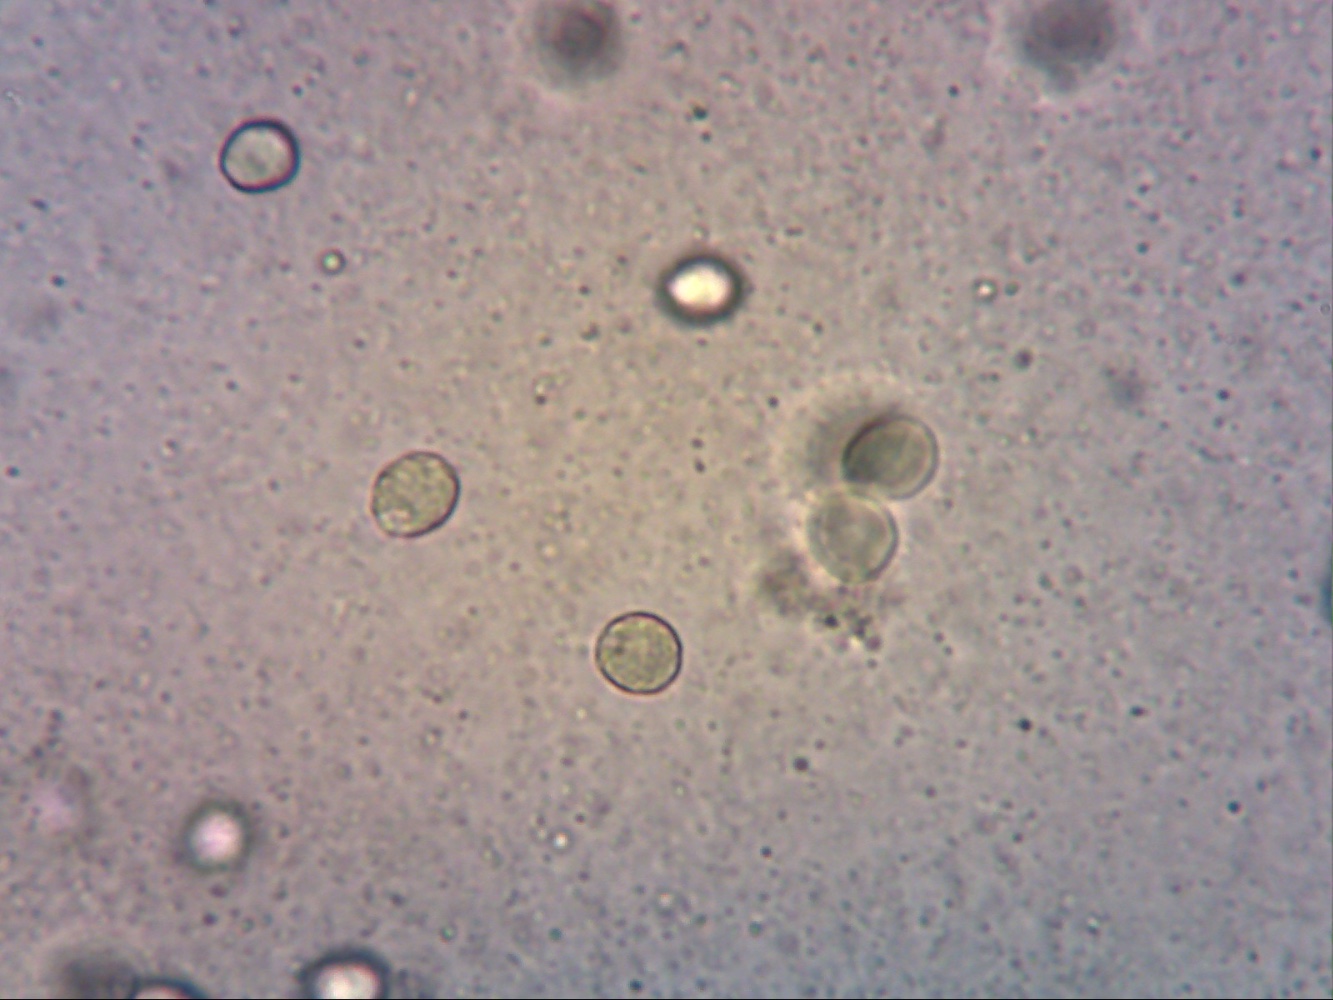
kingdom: Fungi
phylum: Basidiomycota
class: Agaricomycetes
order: Cantharellales
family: Hydnaceae
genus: Hydnum
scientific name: Hydnum ellipsosporum
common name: tandet pigsvamp
